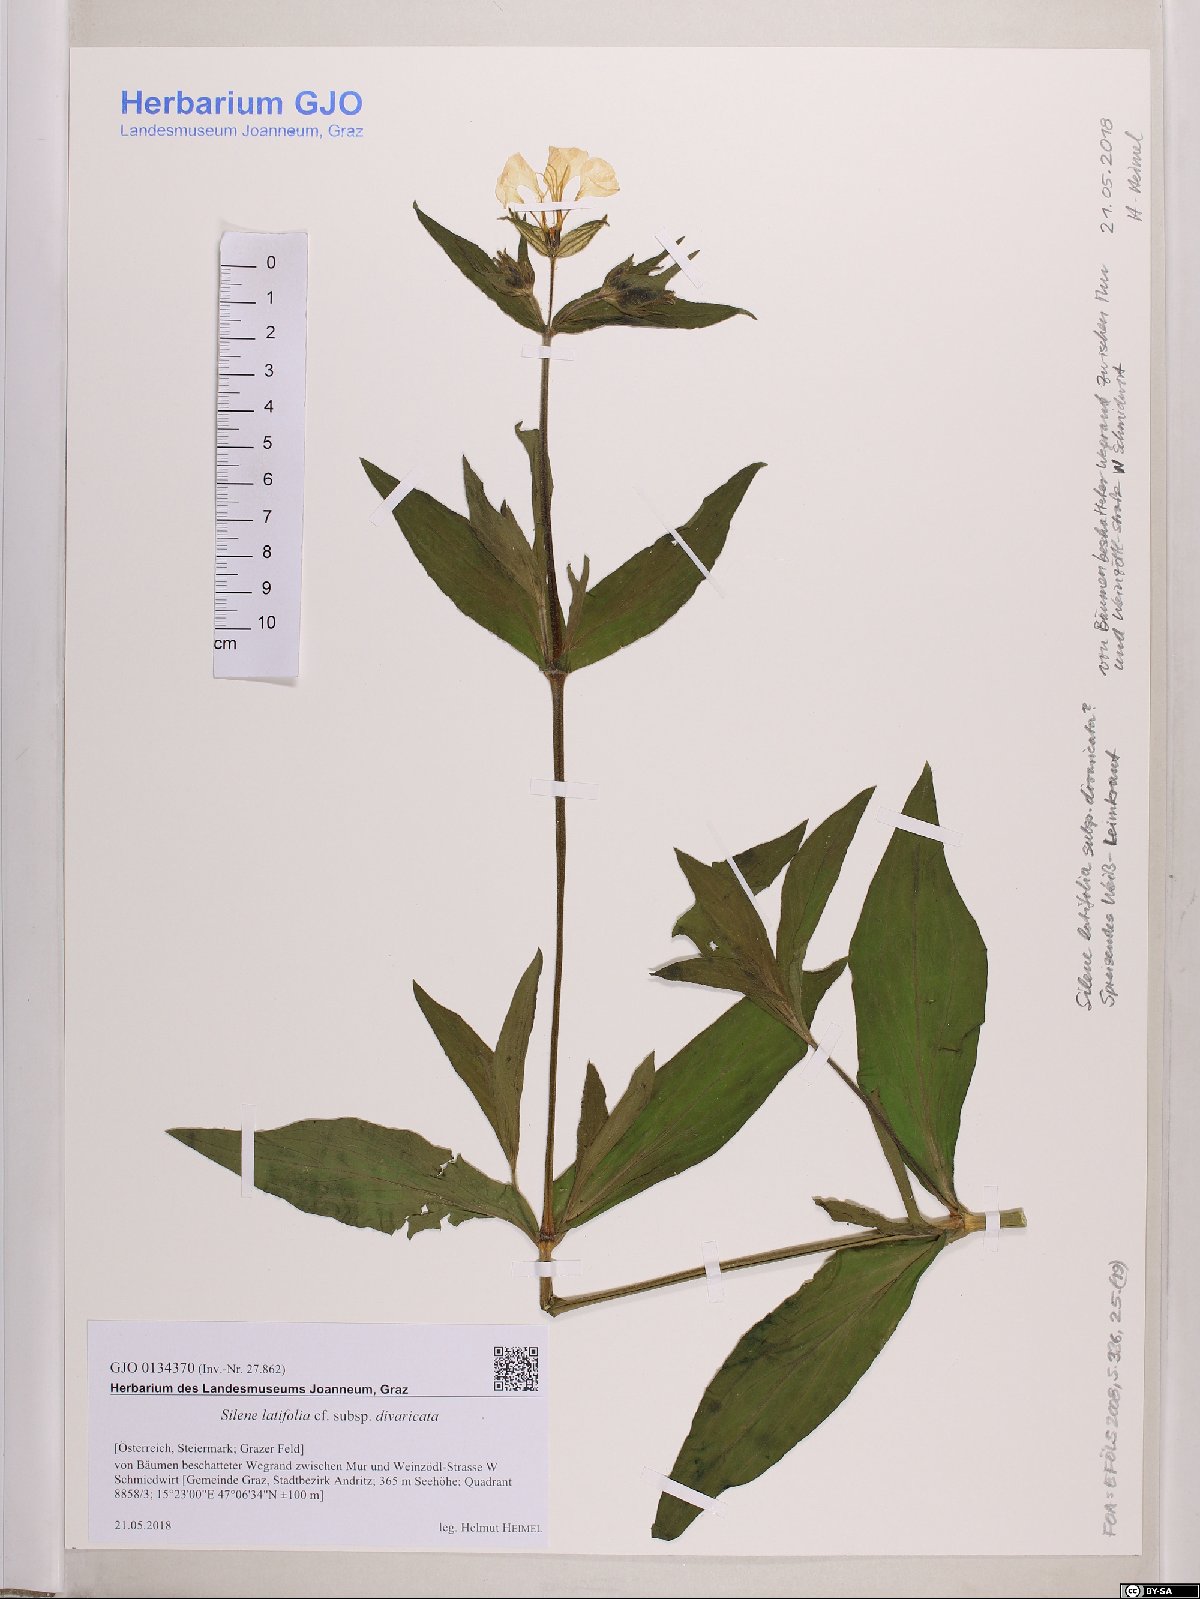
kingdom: Plantae
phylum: Tracheophyta
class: Magnoliopsida
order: Caryophyllales
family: Caryophyllaceae
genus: Silene
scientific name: Silene latifolia
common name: White campion
